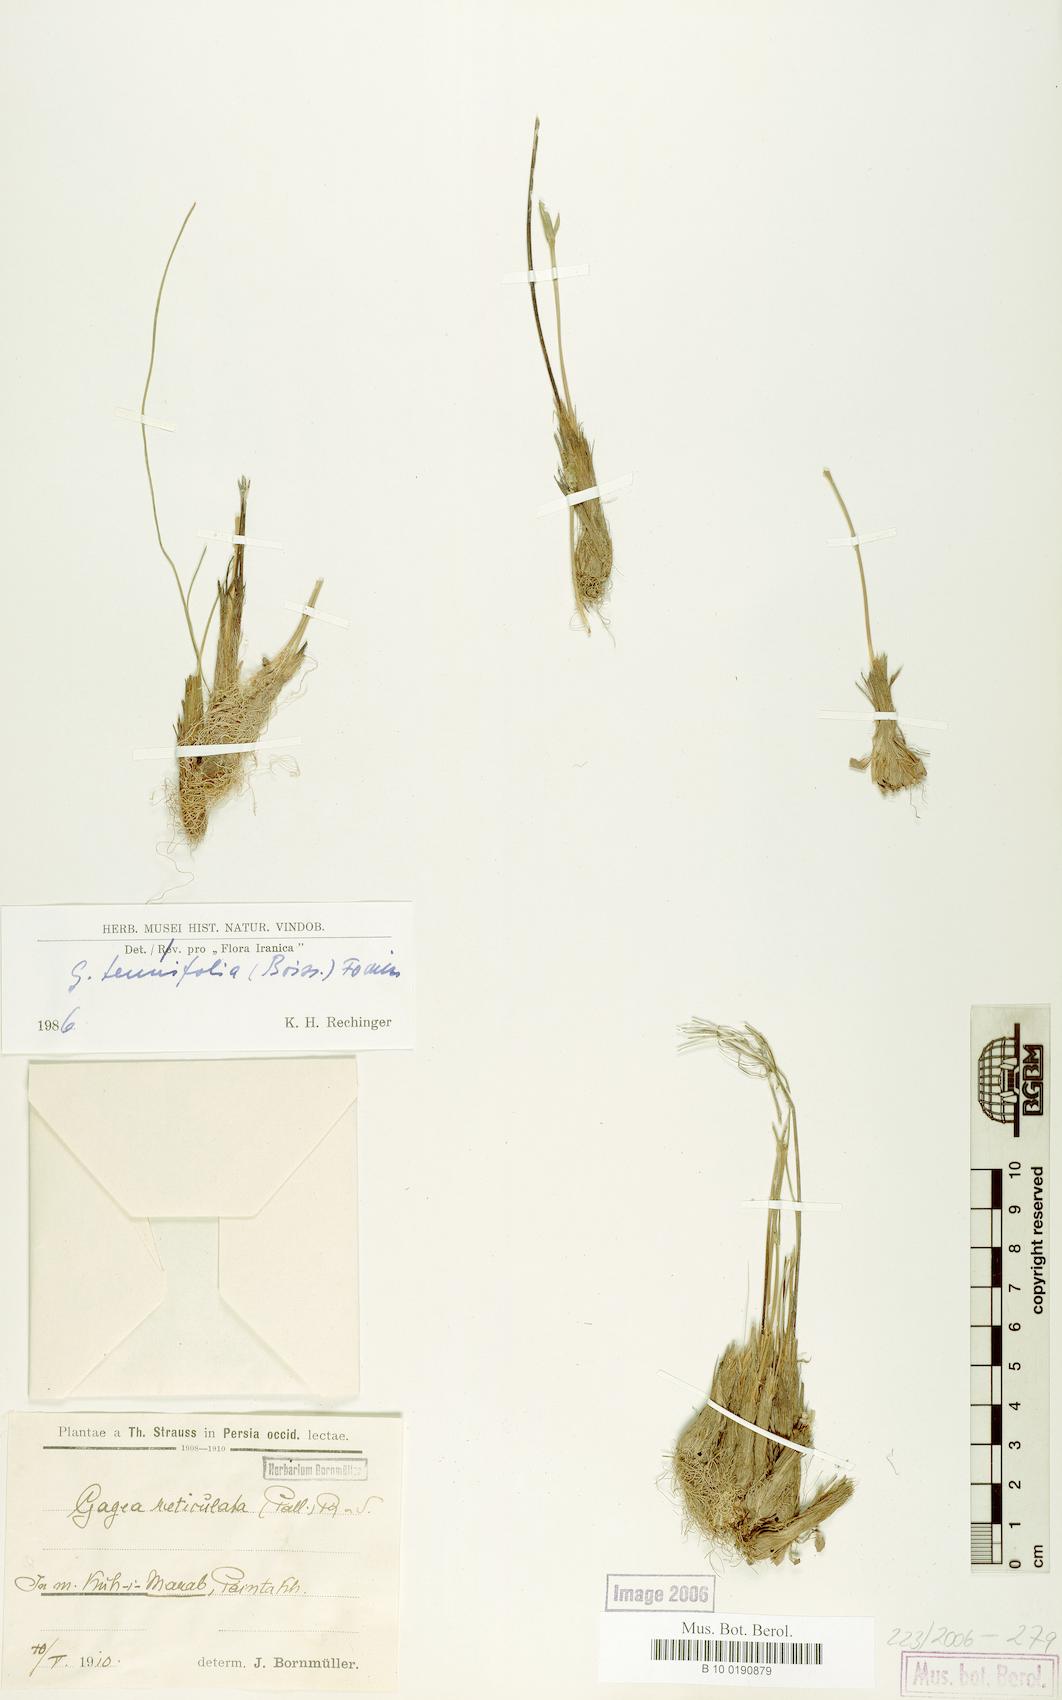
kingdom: Plantae
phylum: Tracheophyta
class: Liliopsida
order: Liliales
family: Liliaceae
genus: Gagea
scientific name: Gagea reticulata
